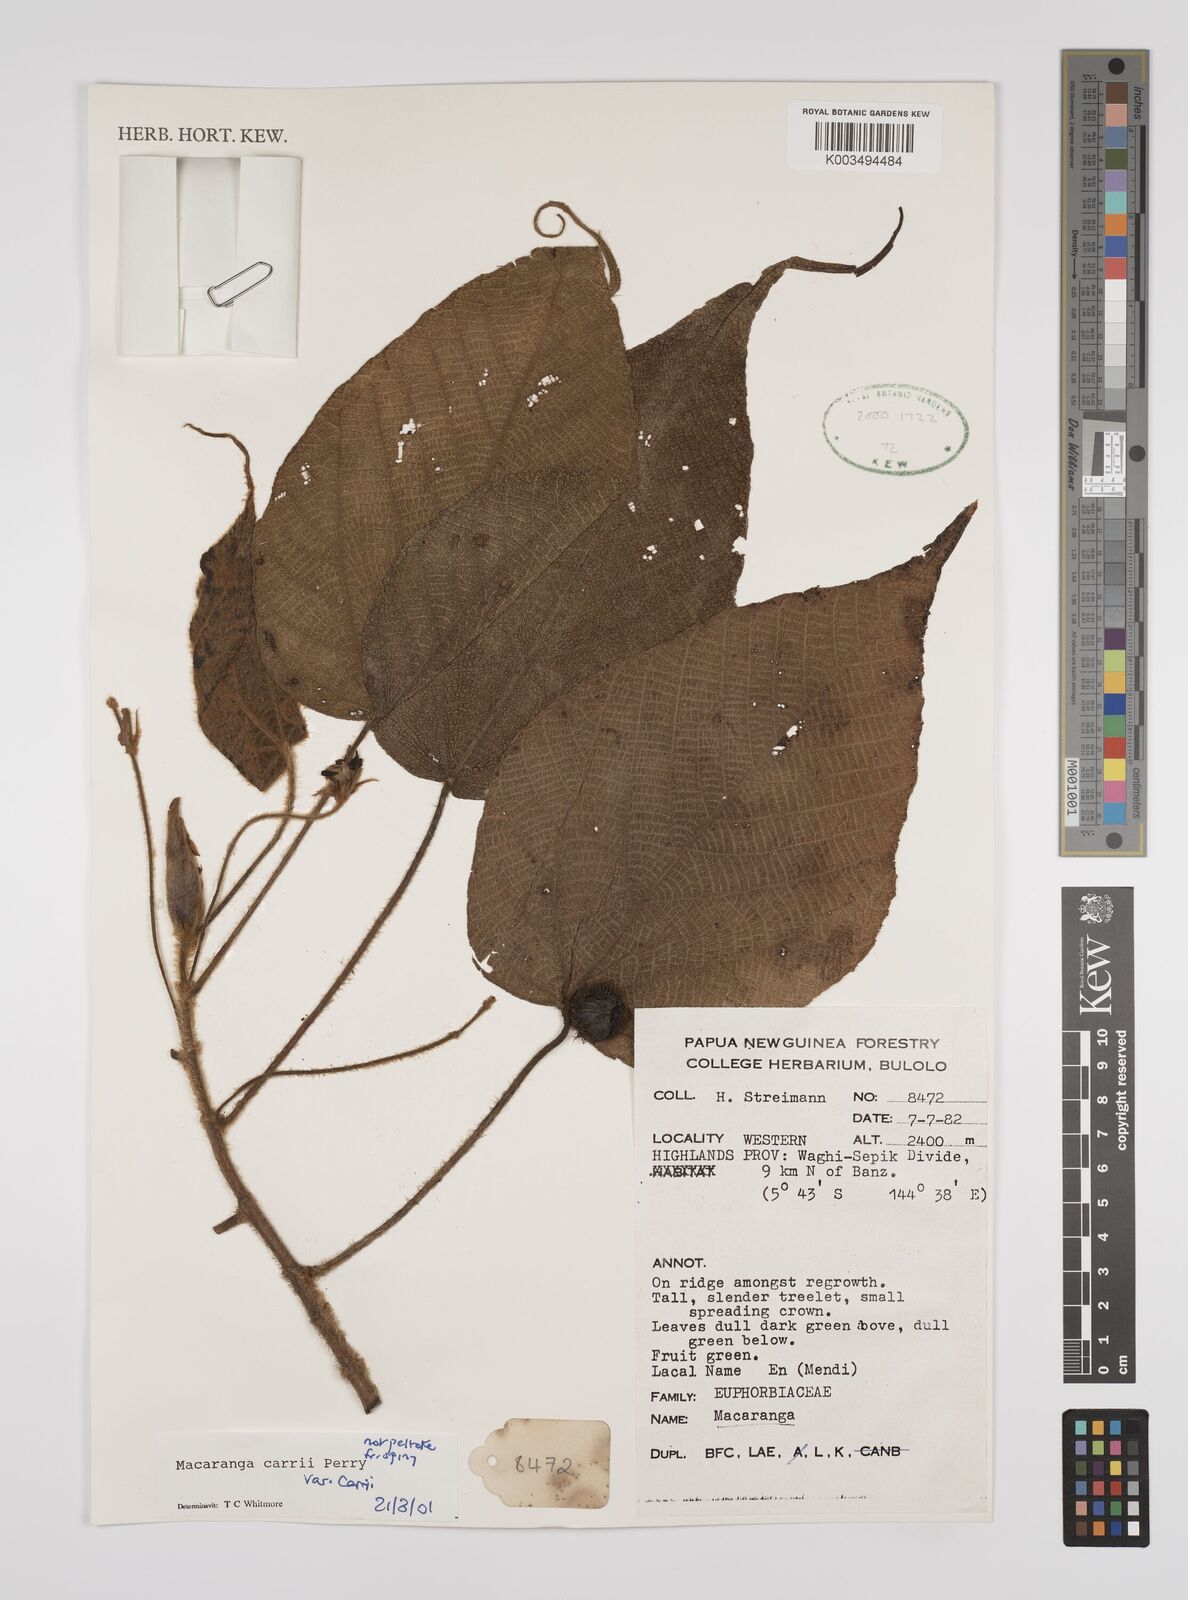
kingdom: Plantae
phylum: Tracheophyta
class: Magnoliopsida
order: Malpighiales
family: Euphorbiaceae
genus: Macaranga
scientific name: Macaranga carrii
